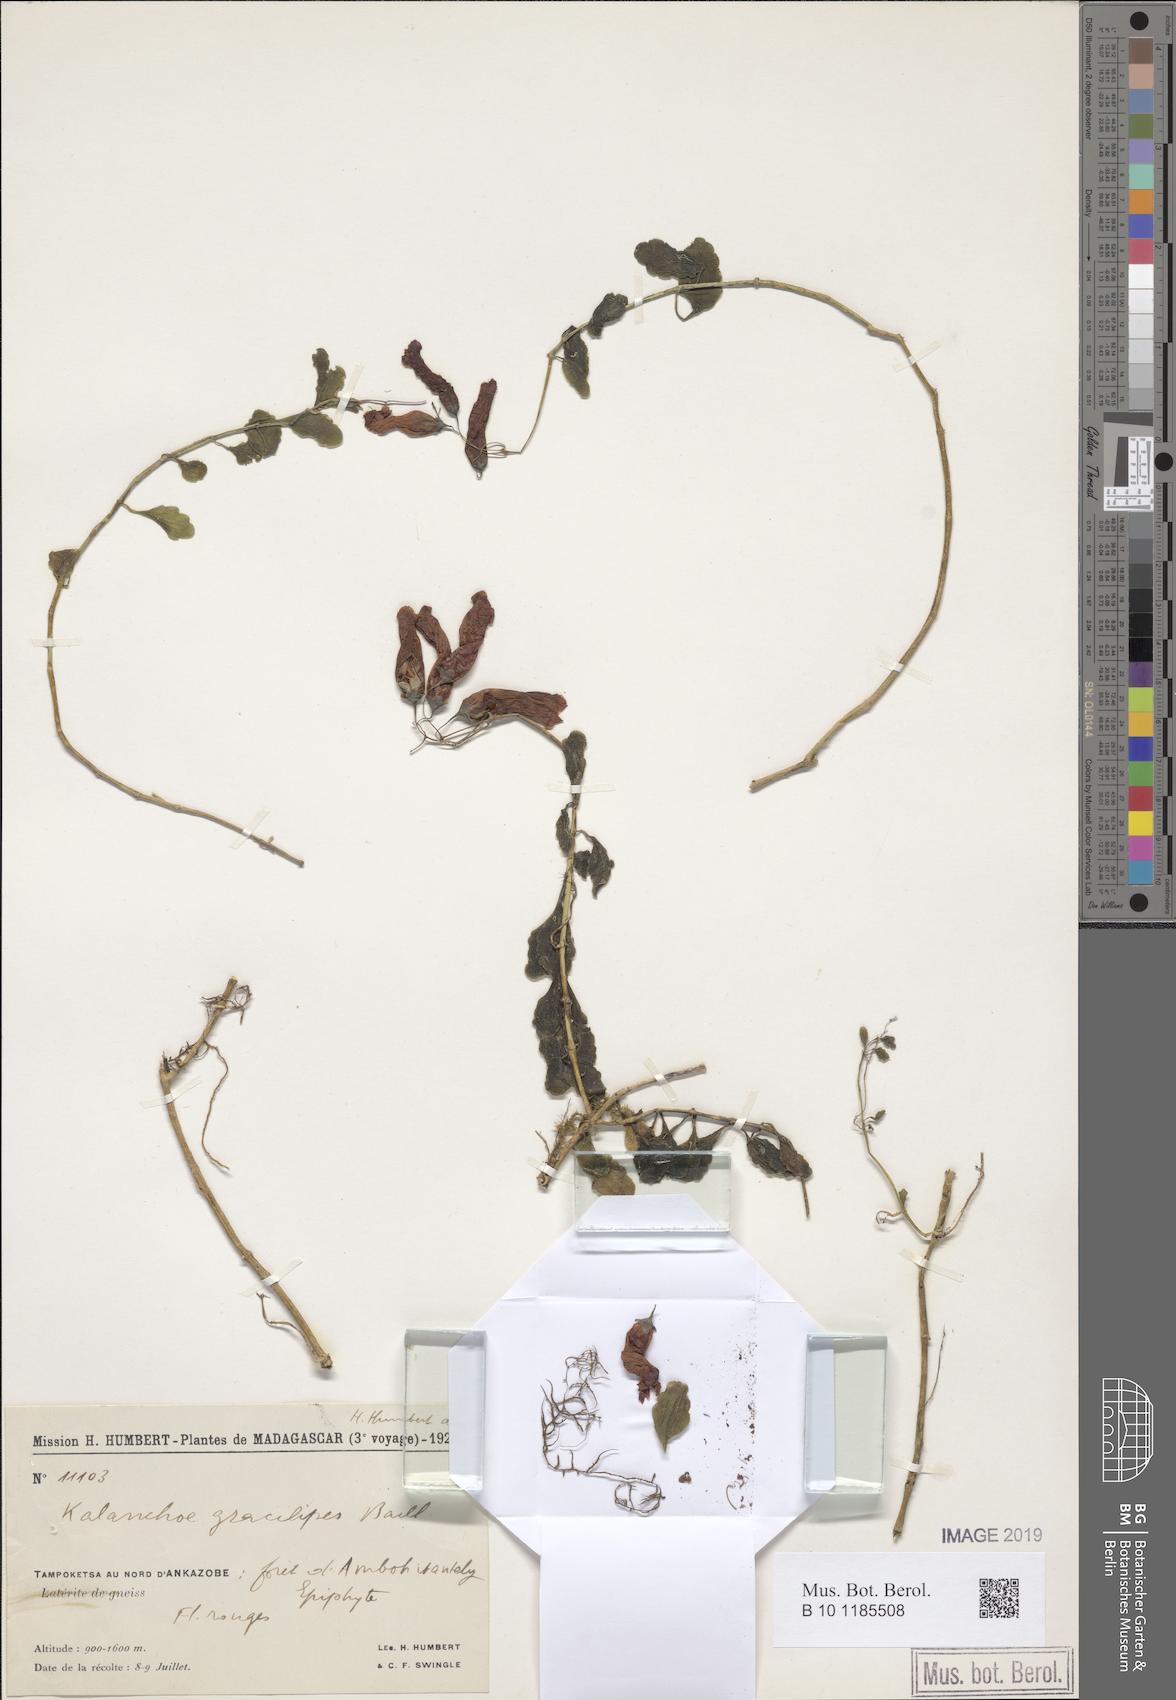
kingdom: Plantae
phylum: Tracheophyta
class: Magnoliopsida
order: Saxifragales
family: Crassulaceae
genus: Kalanchoe
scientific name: Kalanchoe gracilipes
